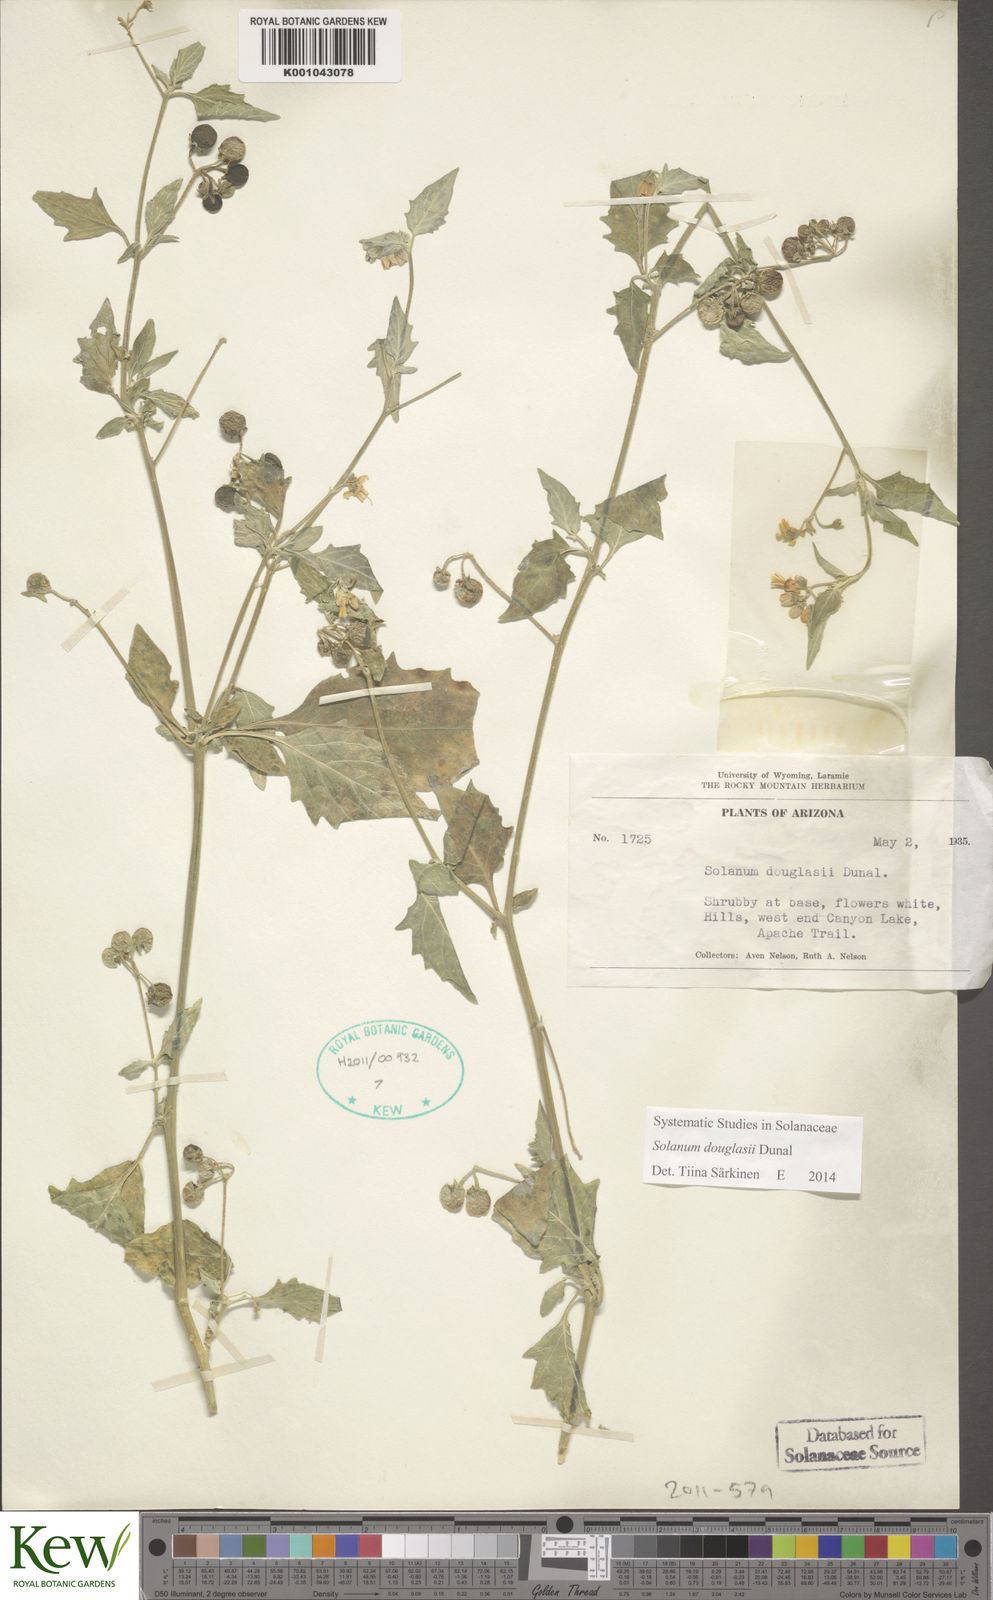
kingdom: Plantae
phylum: Tracheophyta
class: Magnoliopsida
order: Solanales
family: Solanaceae
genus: Solanum
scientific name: Solanum douglasii
